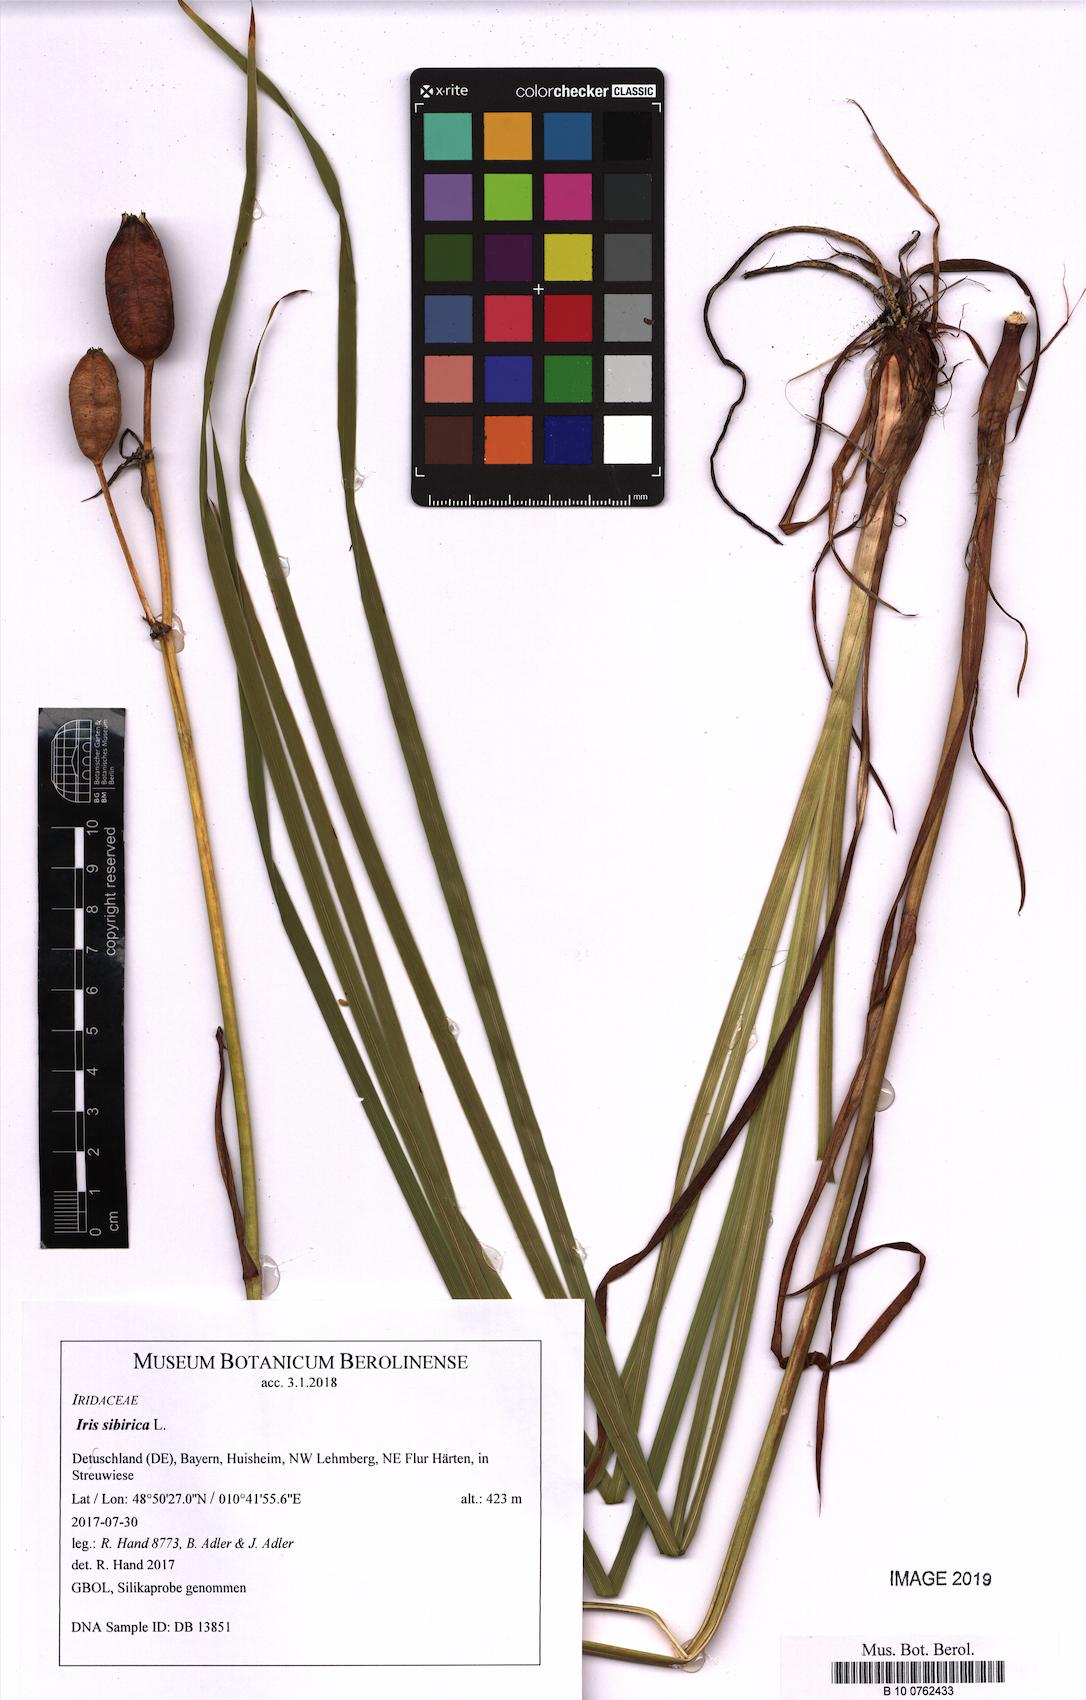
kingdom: Plantae
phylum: Tracheophyta
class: Liliopsida
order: Asparagales
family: Iridaceae
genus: Iris
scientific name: Iris sibirica
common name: Siberian iris
